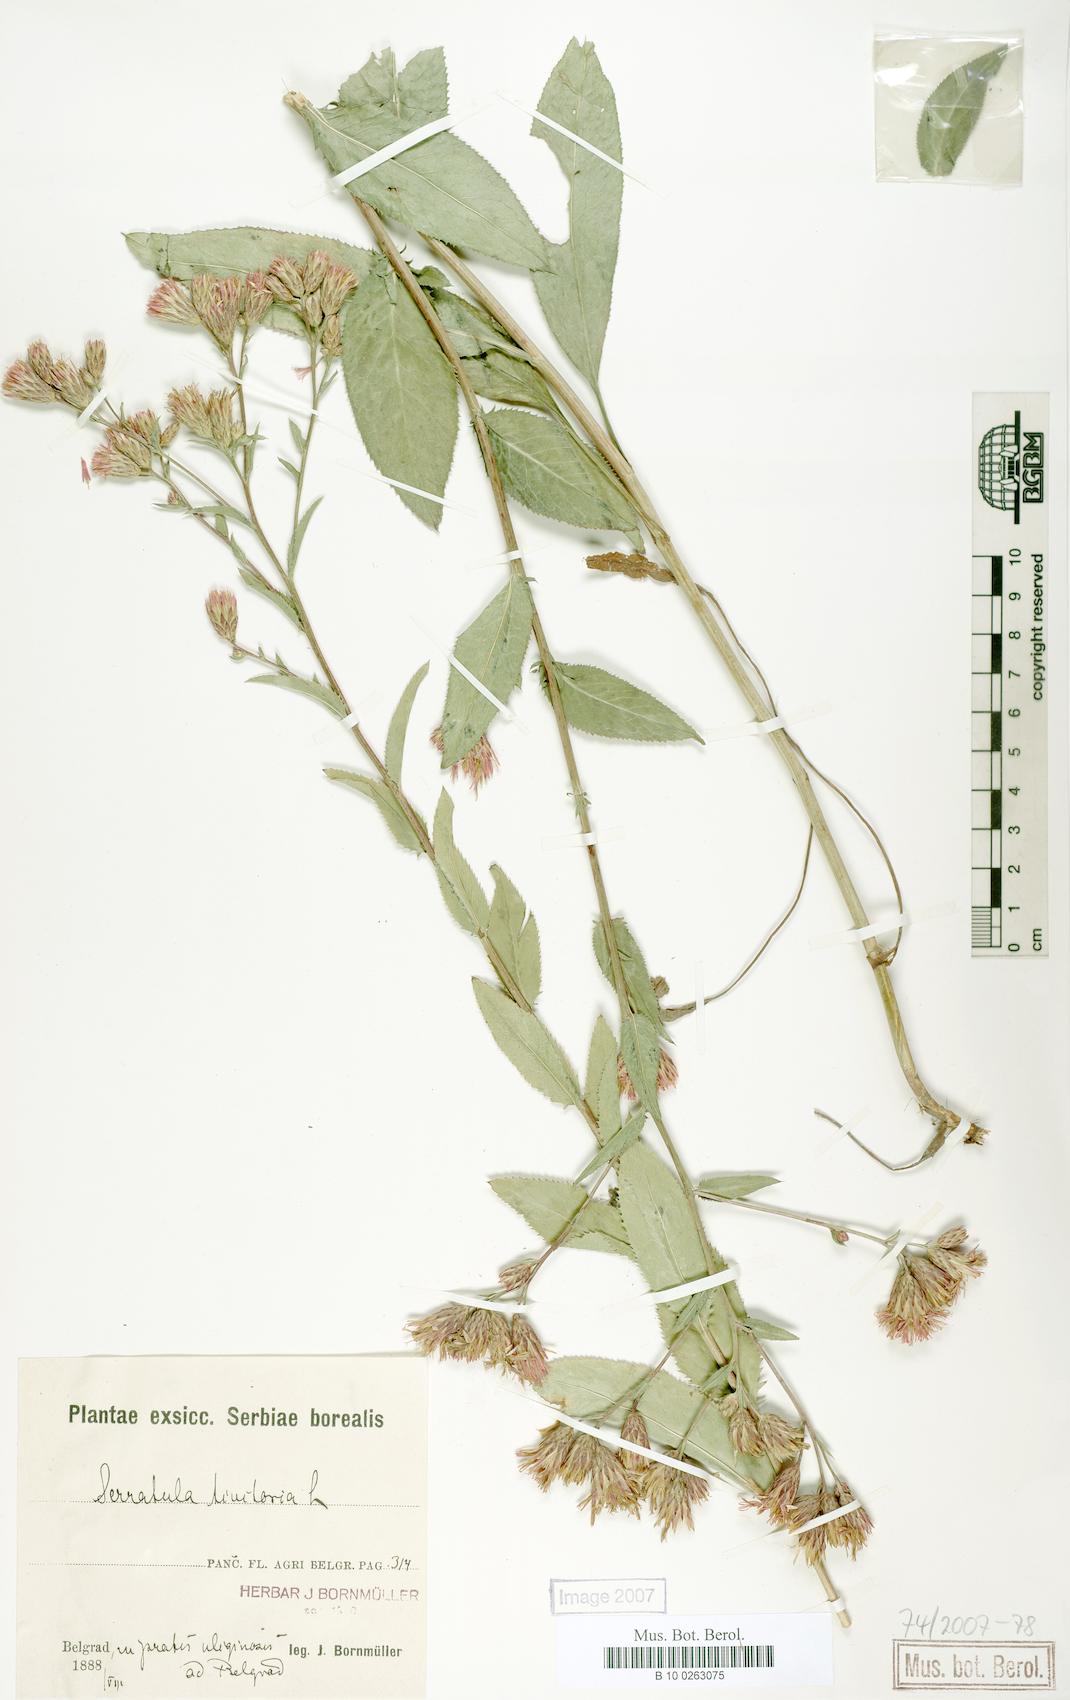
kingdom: Plantae
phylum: Tracheophyta
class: Magnoliopsida
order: Asterales
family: Asteraceae
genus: Serratula
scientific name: Serratula tinctoria
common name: Saw-wort
